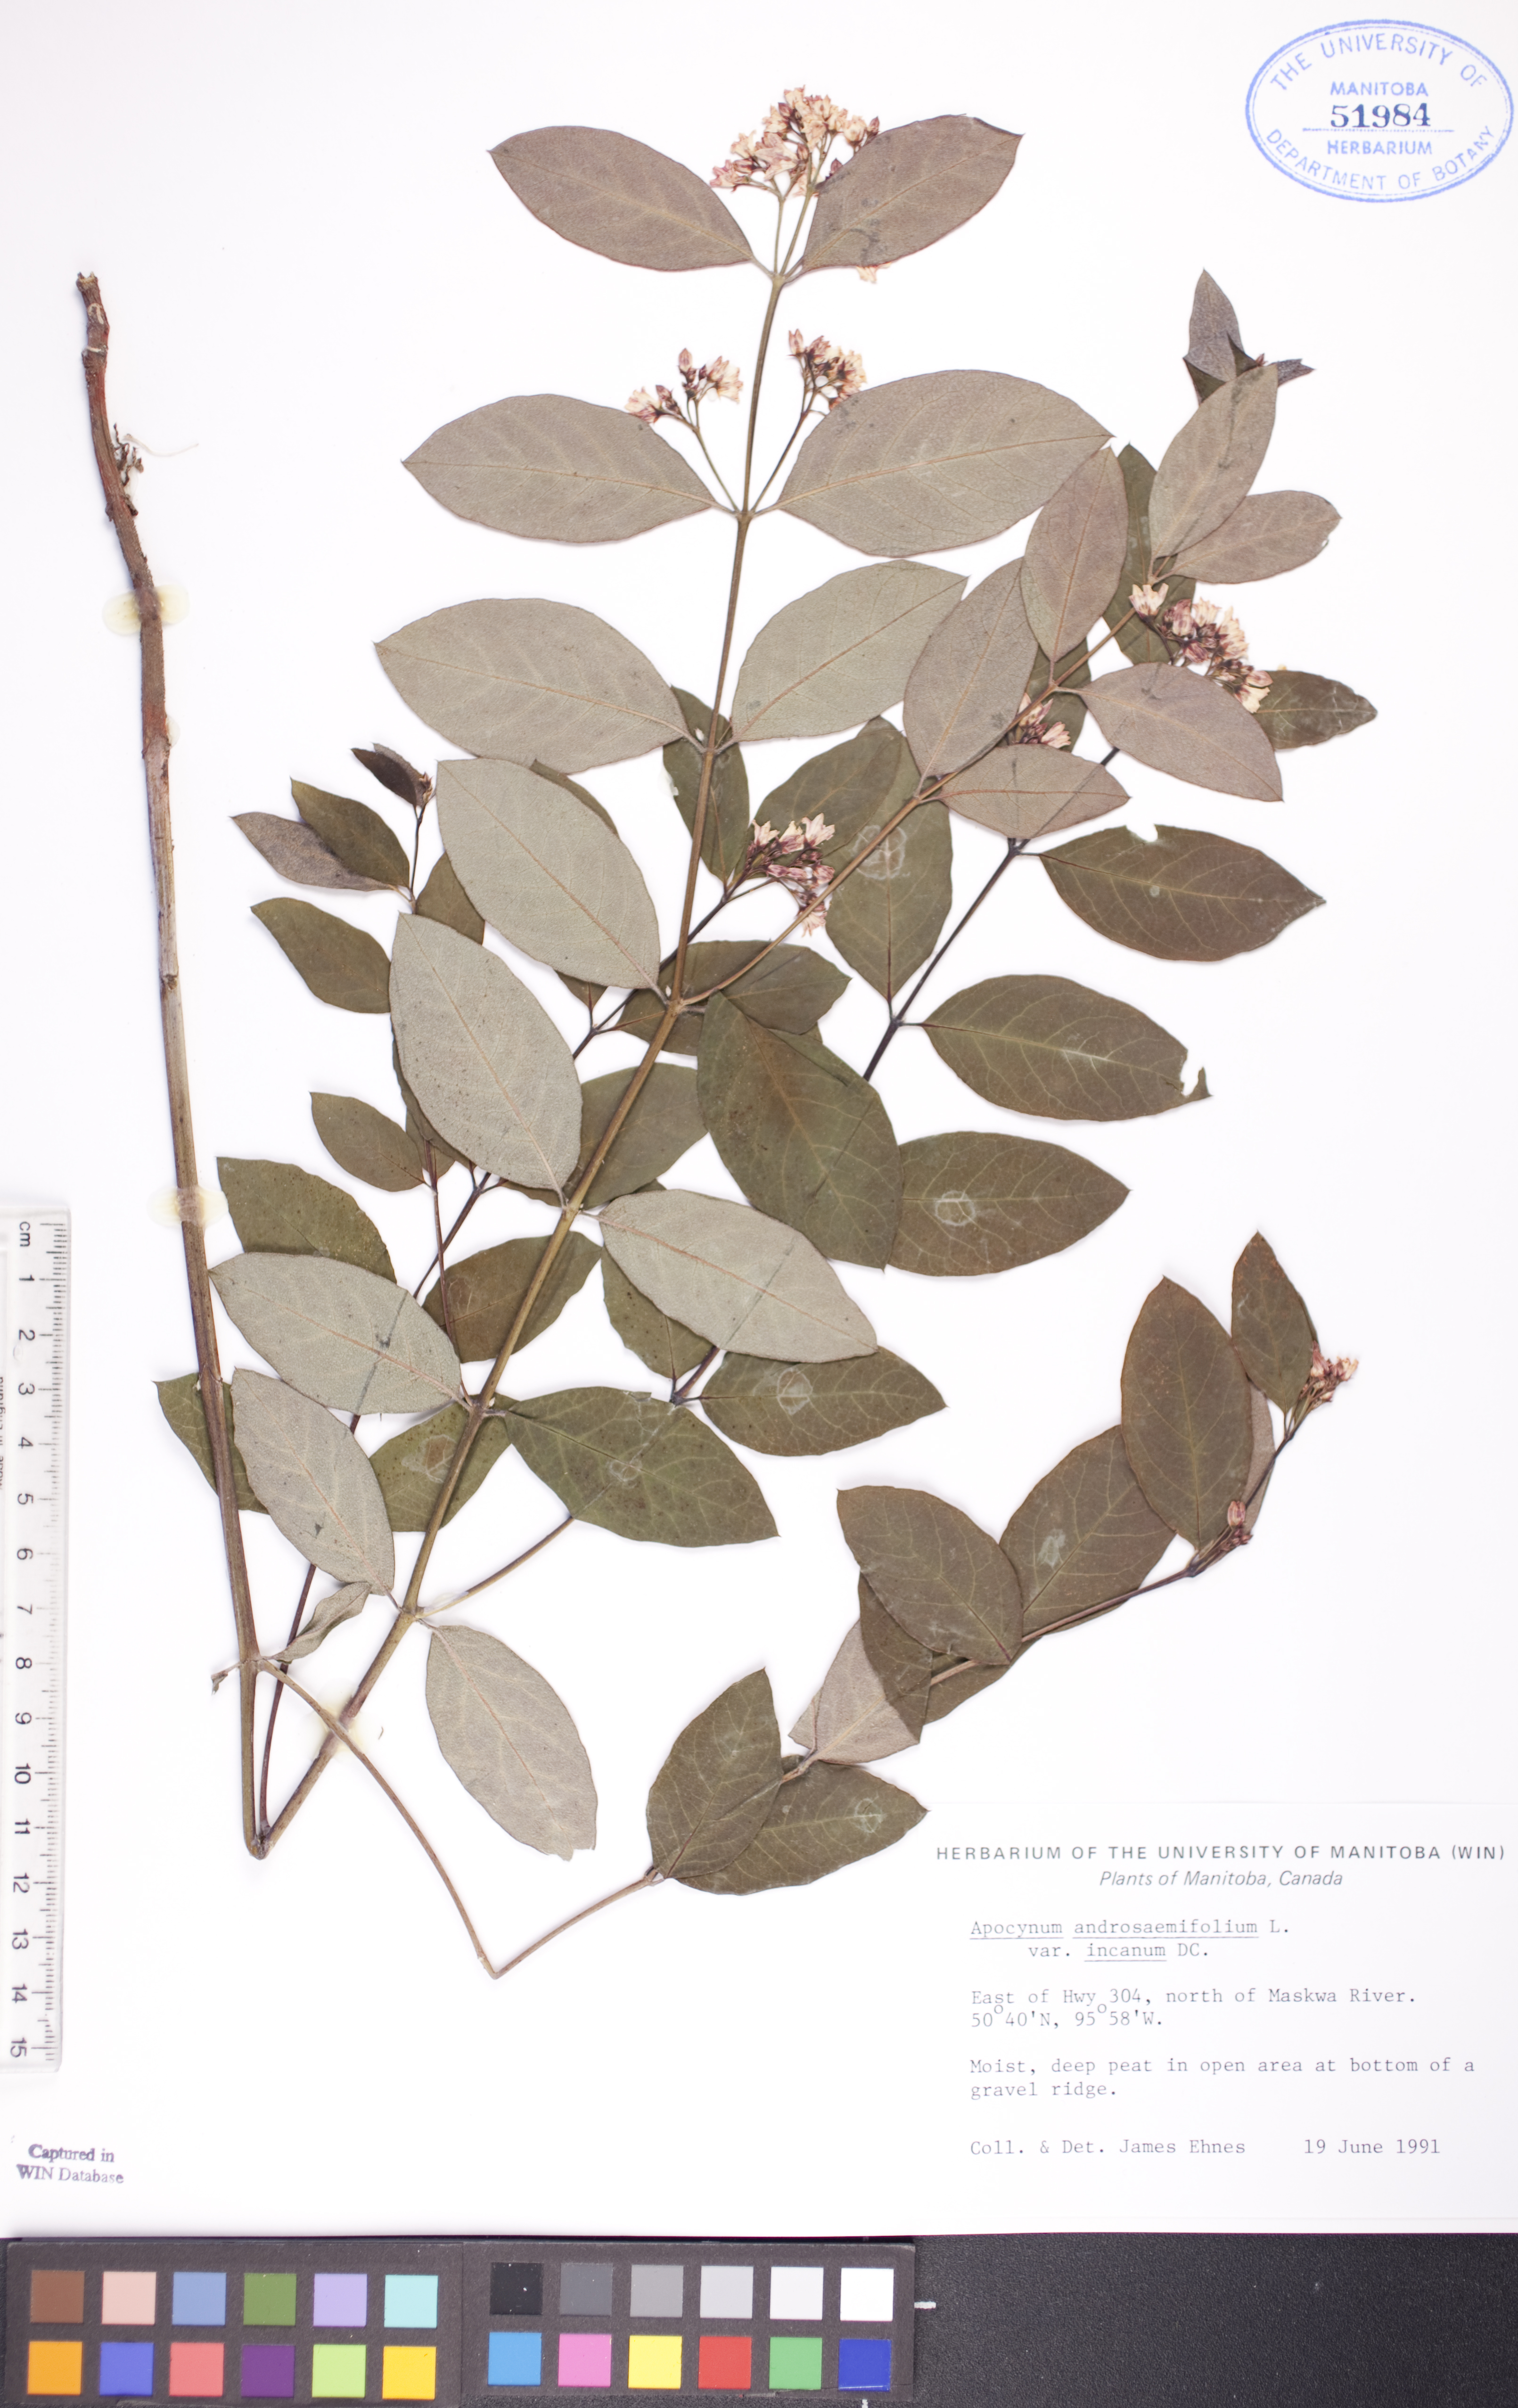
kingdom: Plantae
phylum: Tracheophyta
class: Magnoliopsida
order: Gentianales
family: Apocynaceae
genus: Apocynum
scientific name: Apocynum androsaemifolium
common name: Spreading dogbane
